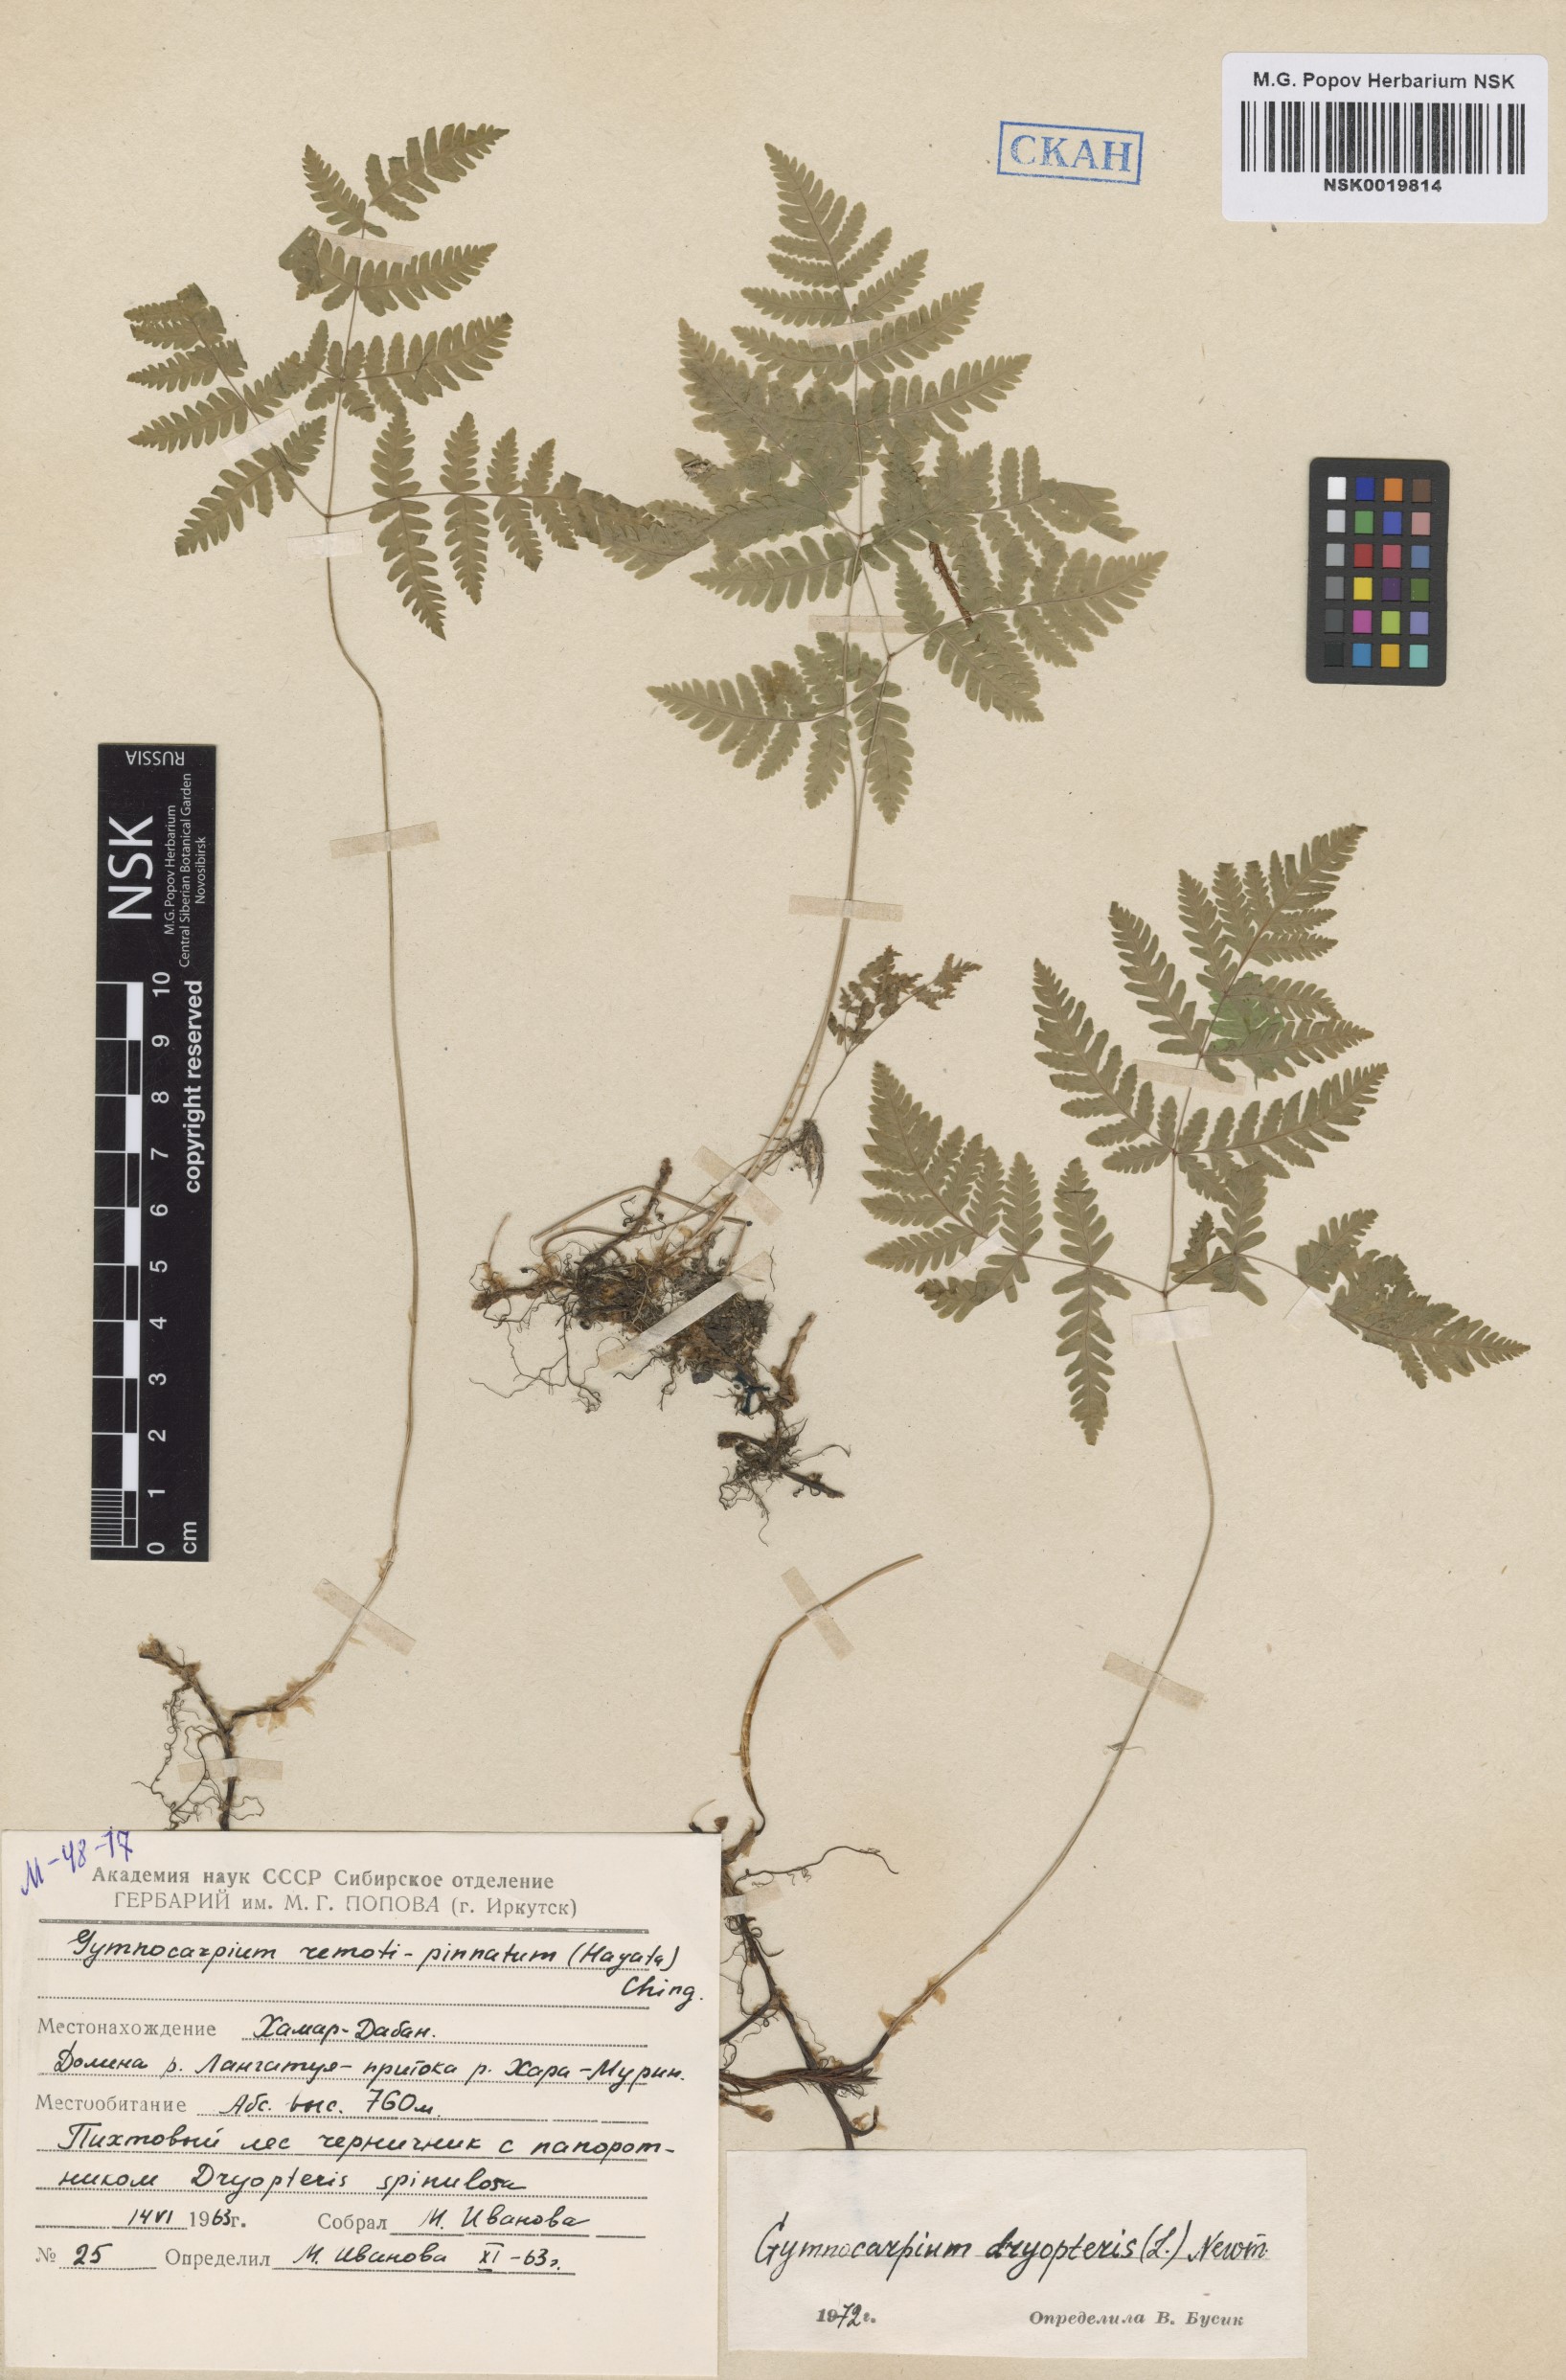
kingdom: Plantae
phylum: Tracheophyta
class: Polypodiopsida
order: Polypodiales
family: Cystopteridaceae
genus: Gymnocarpium
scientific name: Gymnocarpium dryopteris
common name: Oak fern
